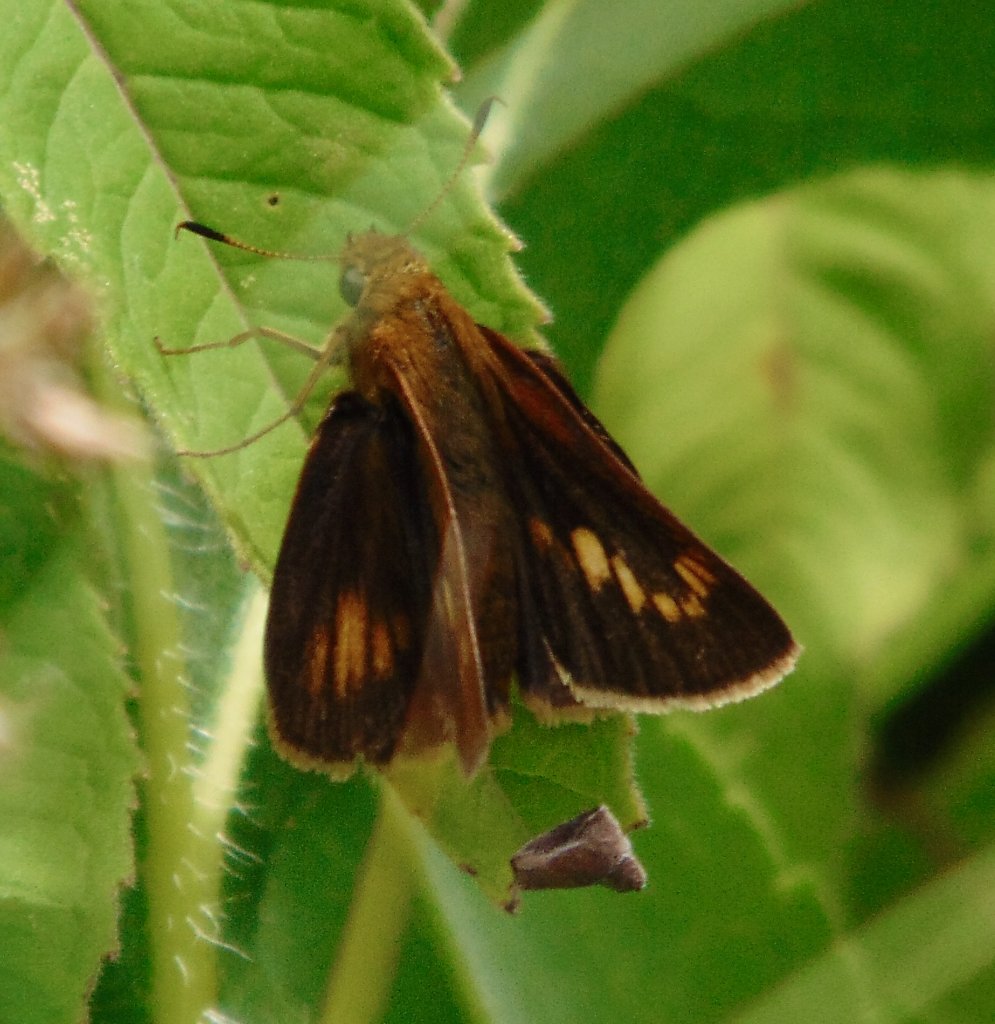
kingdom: Animalia
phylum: Arthropoda
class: Insecta
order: Lepidoptera
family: Hesperiidae
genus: Euphyes
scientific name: Euphyes conspicua
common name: Black Dash
